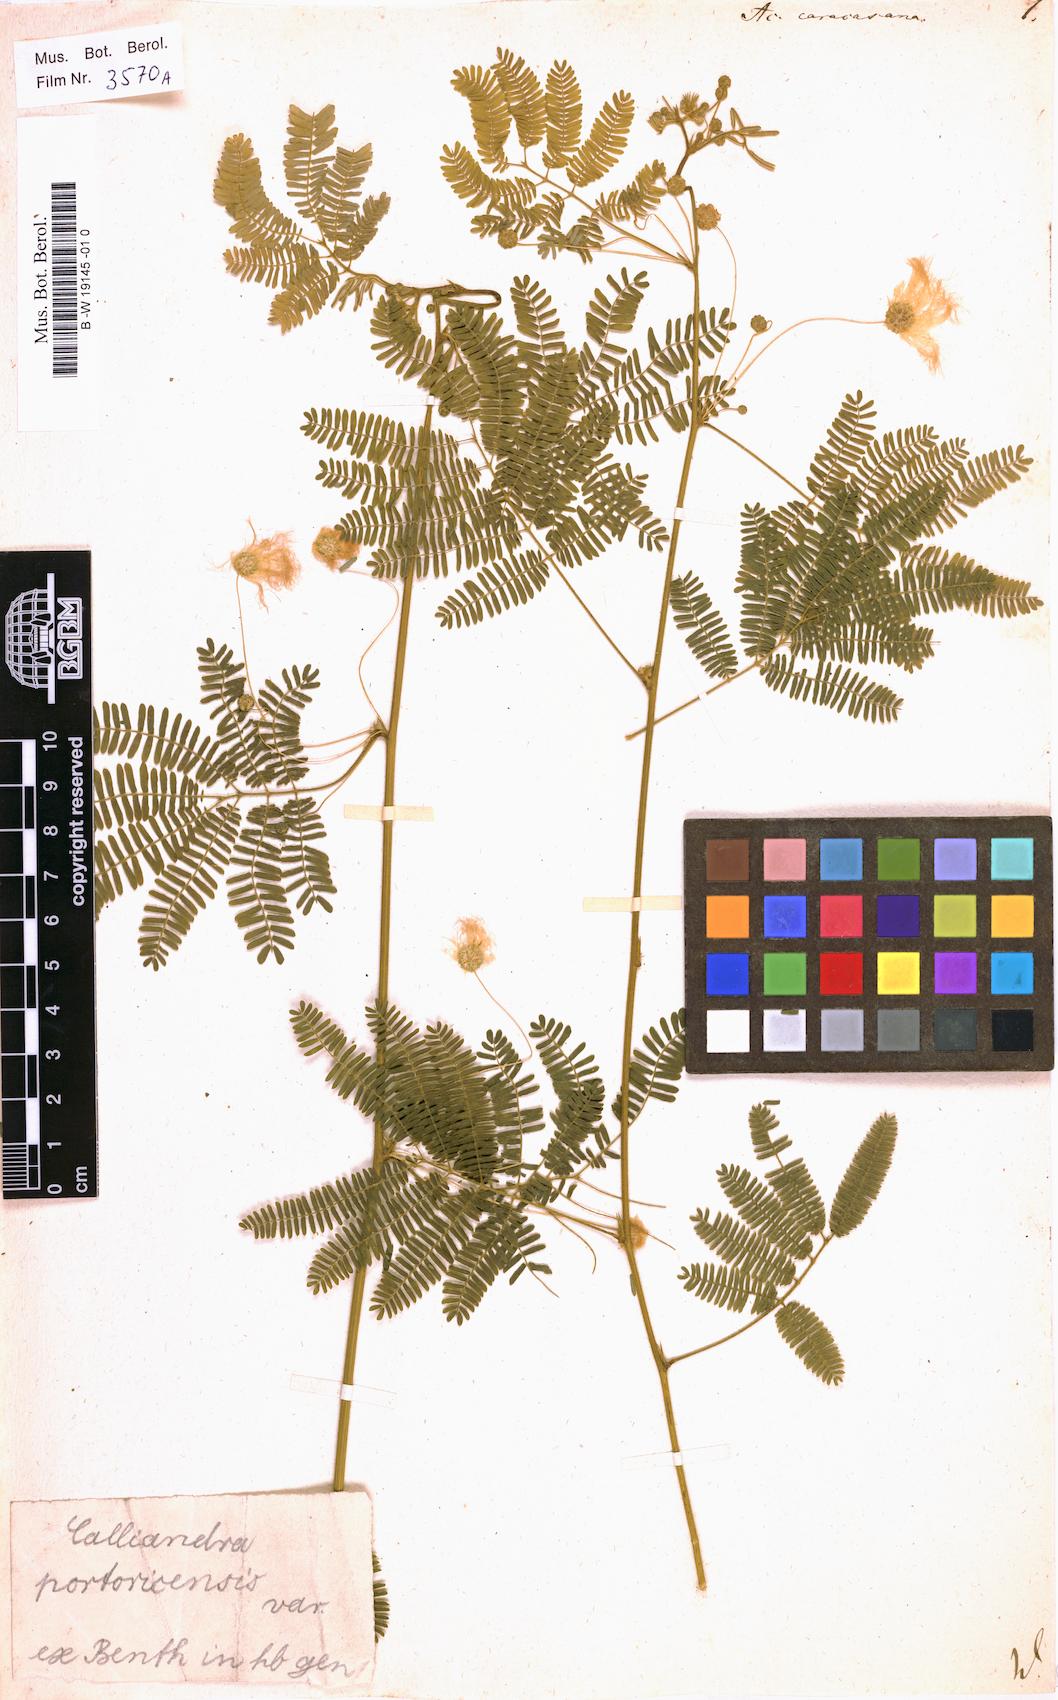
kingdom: Plantae
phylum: Tracheophyta
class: Magnoliopsida
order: Fabales
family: Fabaceae
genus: Zapoteca
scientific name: Zapoteca caracasana
